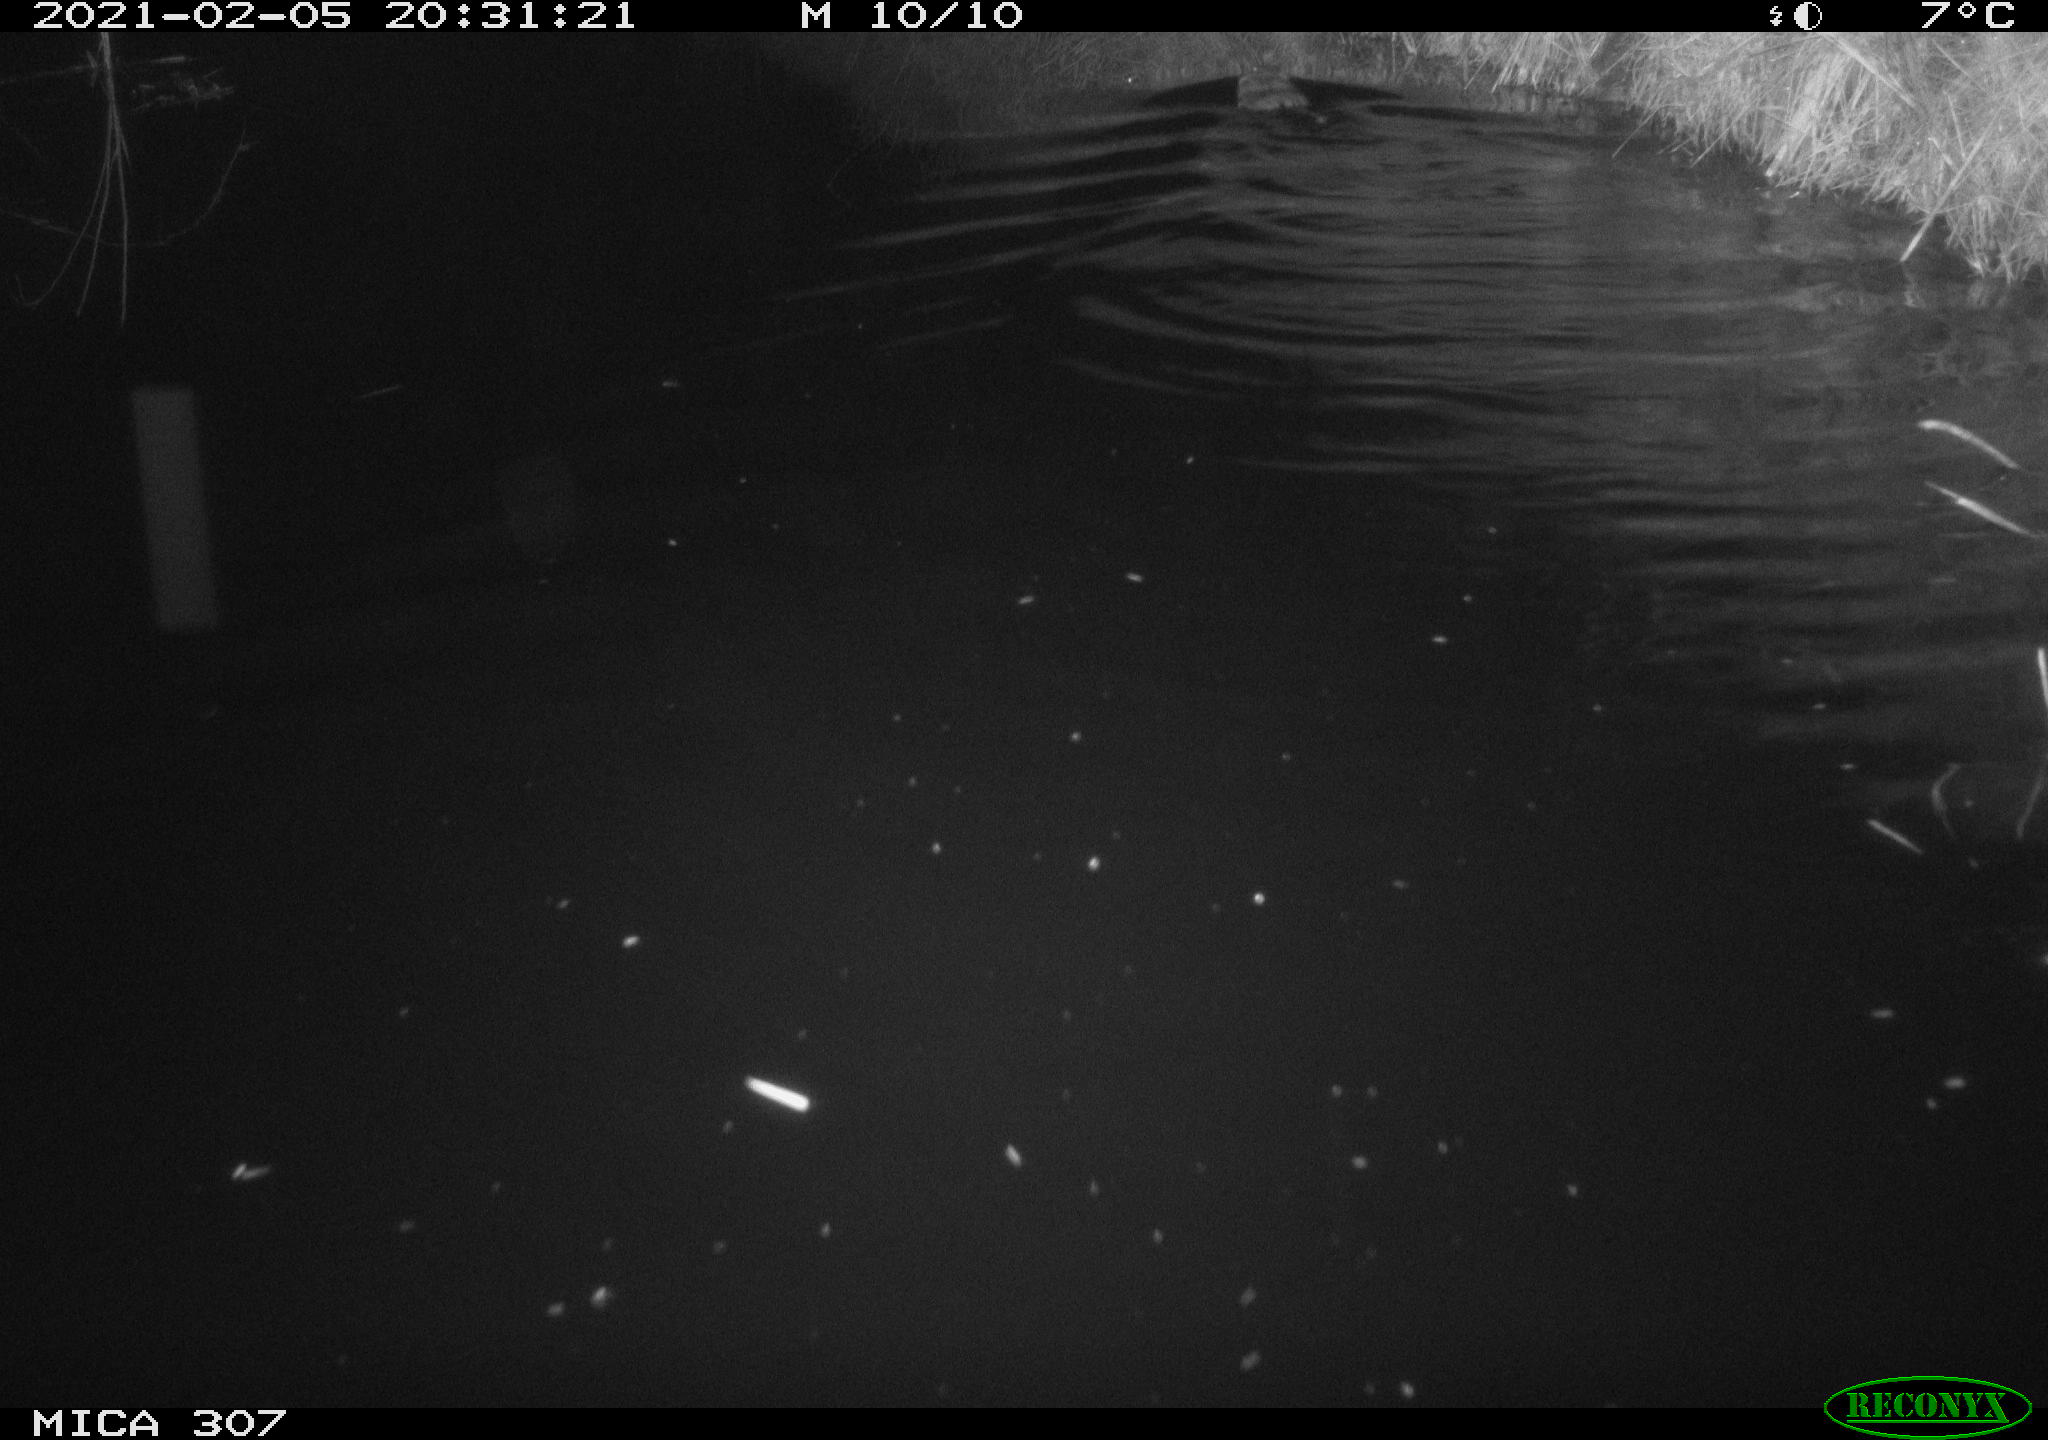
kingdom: Animalia
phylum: Chordata
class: Mammalia
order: Rodentia
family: Cricetidae
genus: Ondatra
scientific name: Ondatra zibethicus
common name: Muskrat
